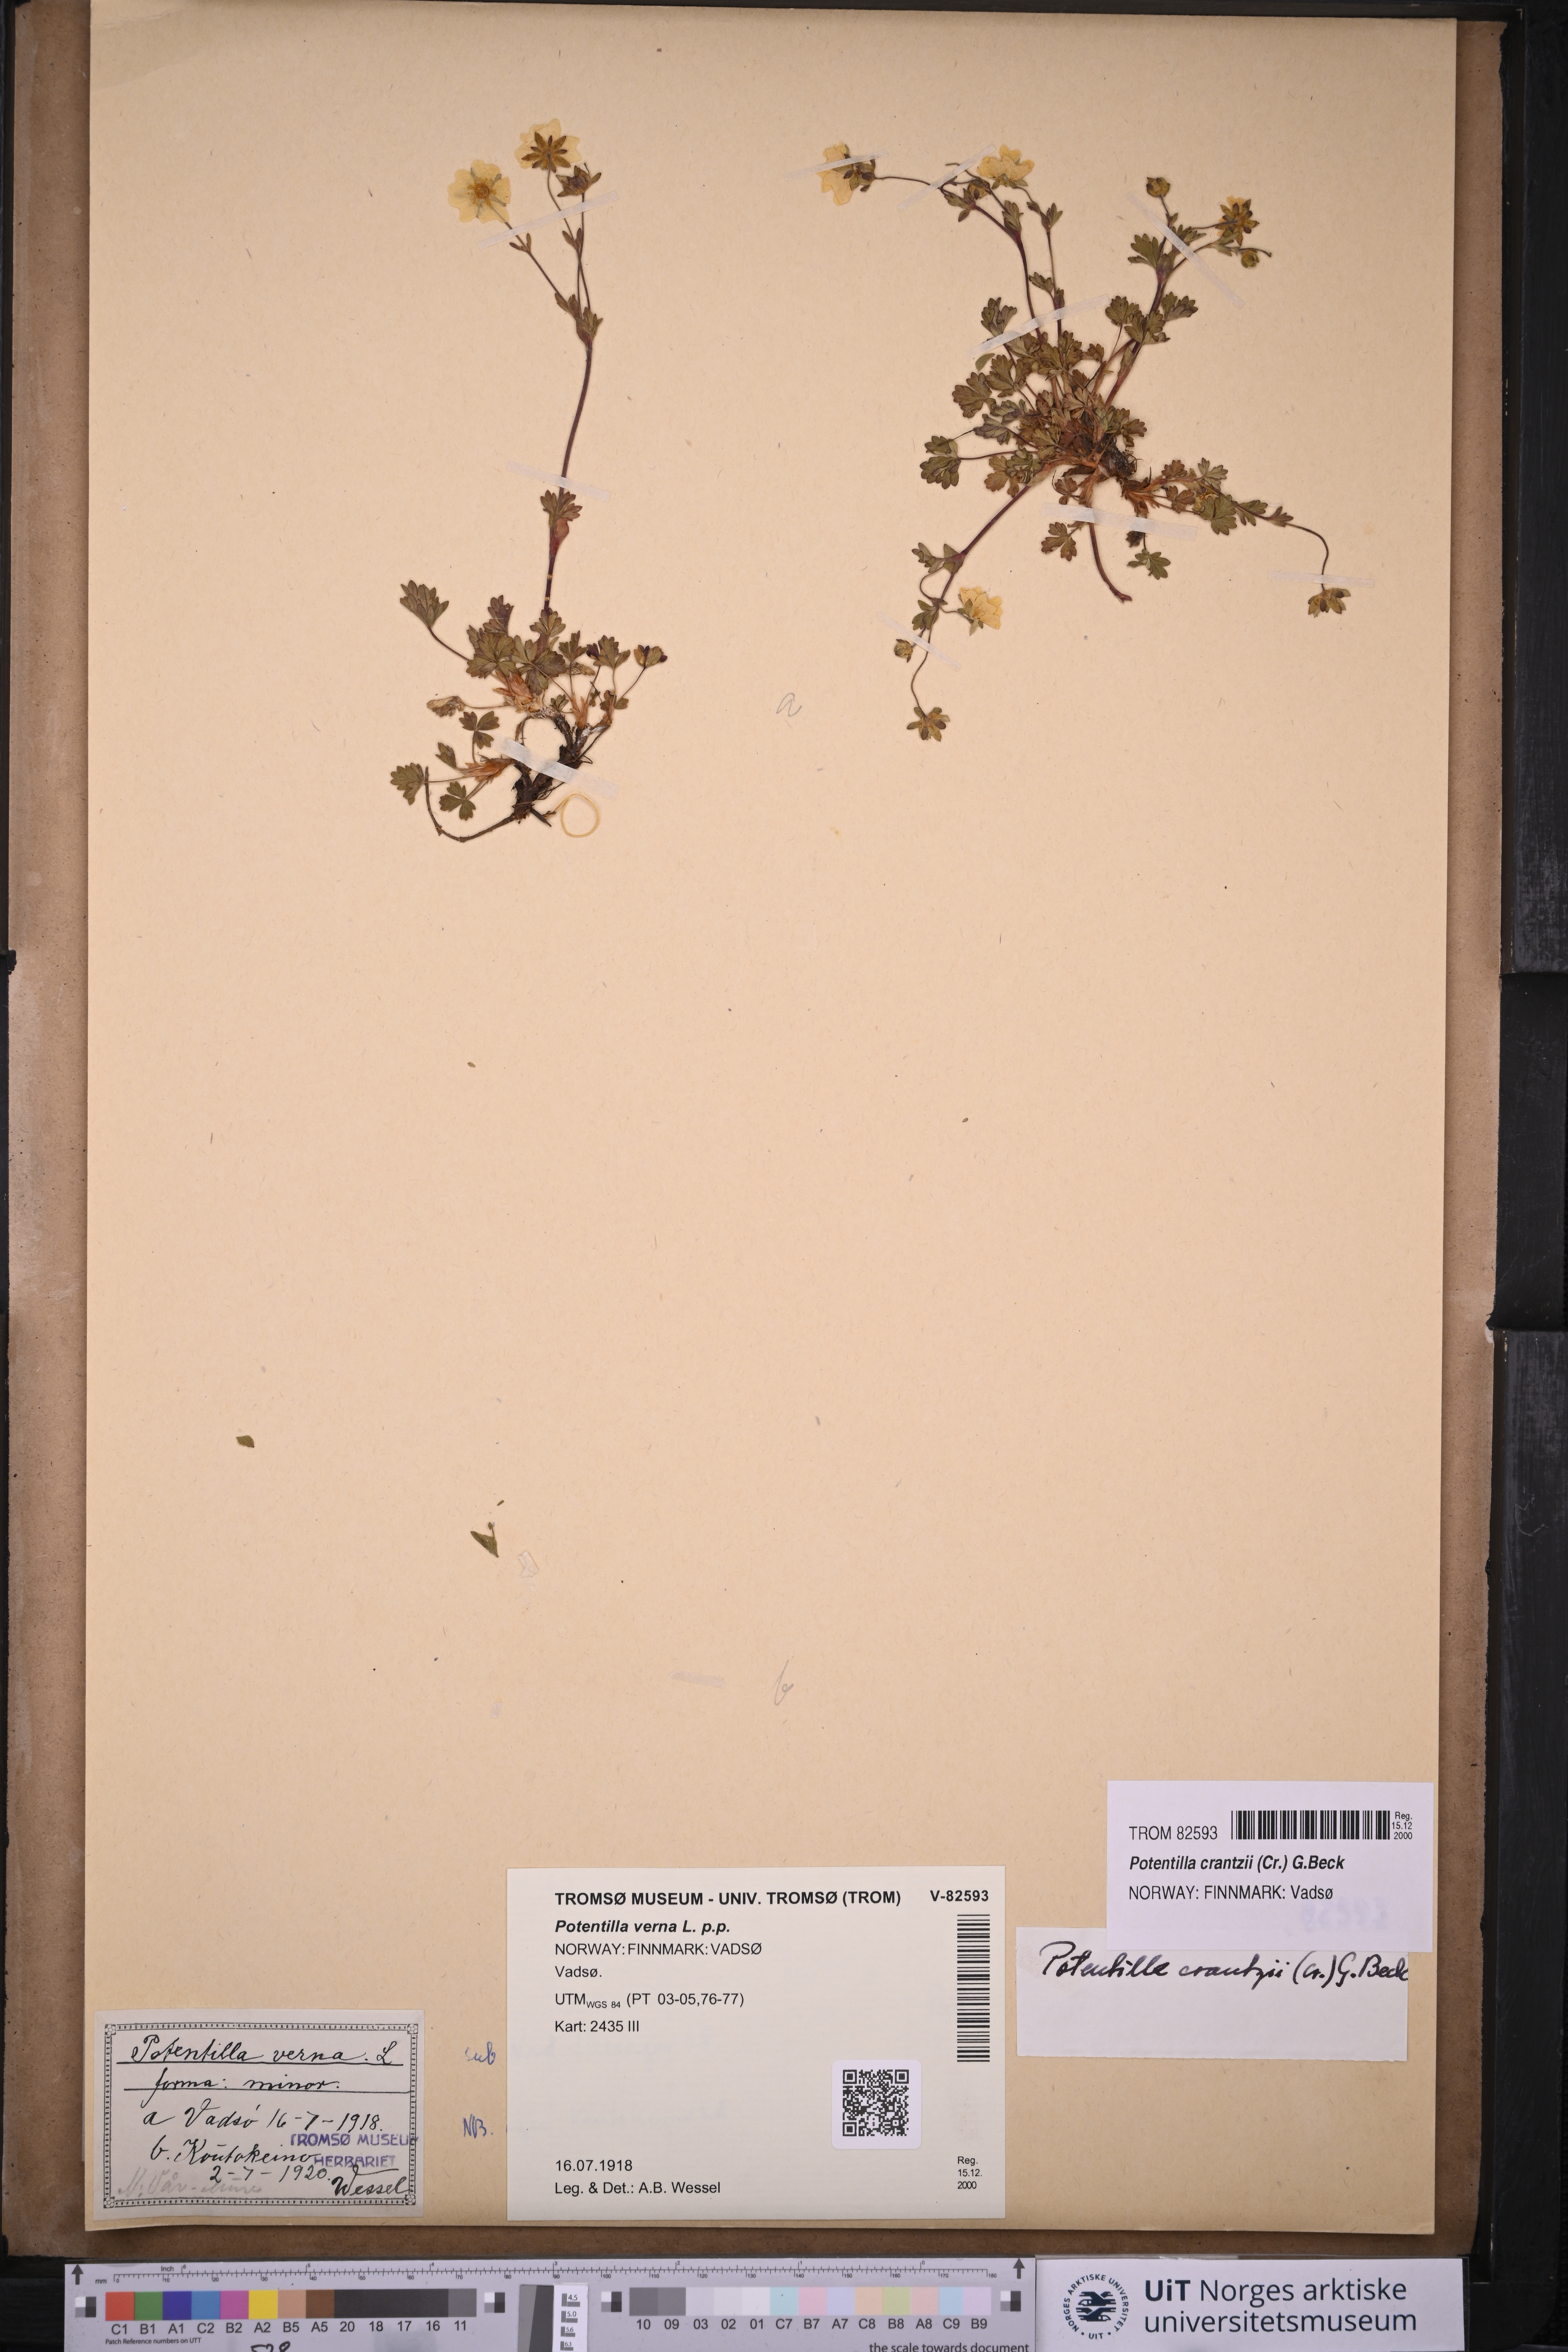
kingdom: Plantae
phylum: Tracheophyta
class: Magnoliopsida
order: Rosales
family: Rosaceae
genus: Potentilla
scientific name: Potentilla crantzii
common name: Alpine cinquefoil
